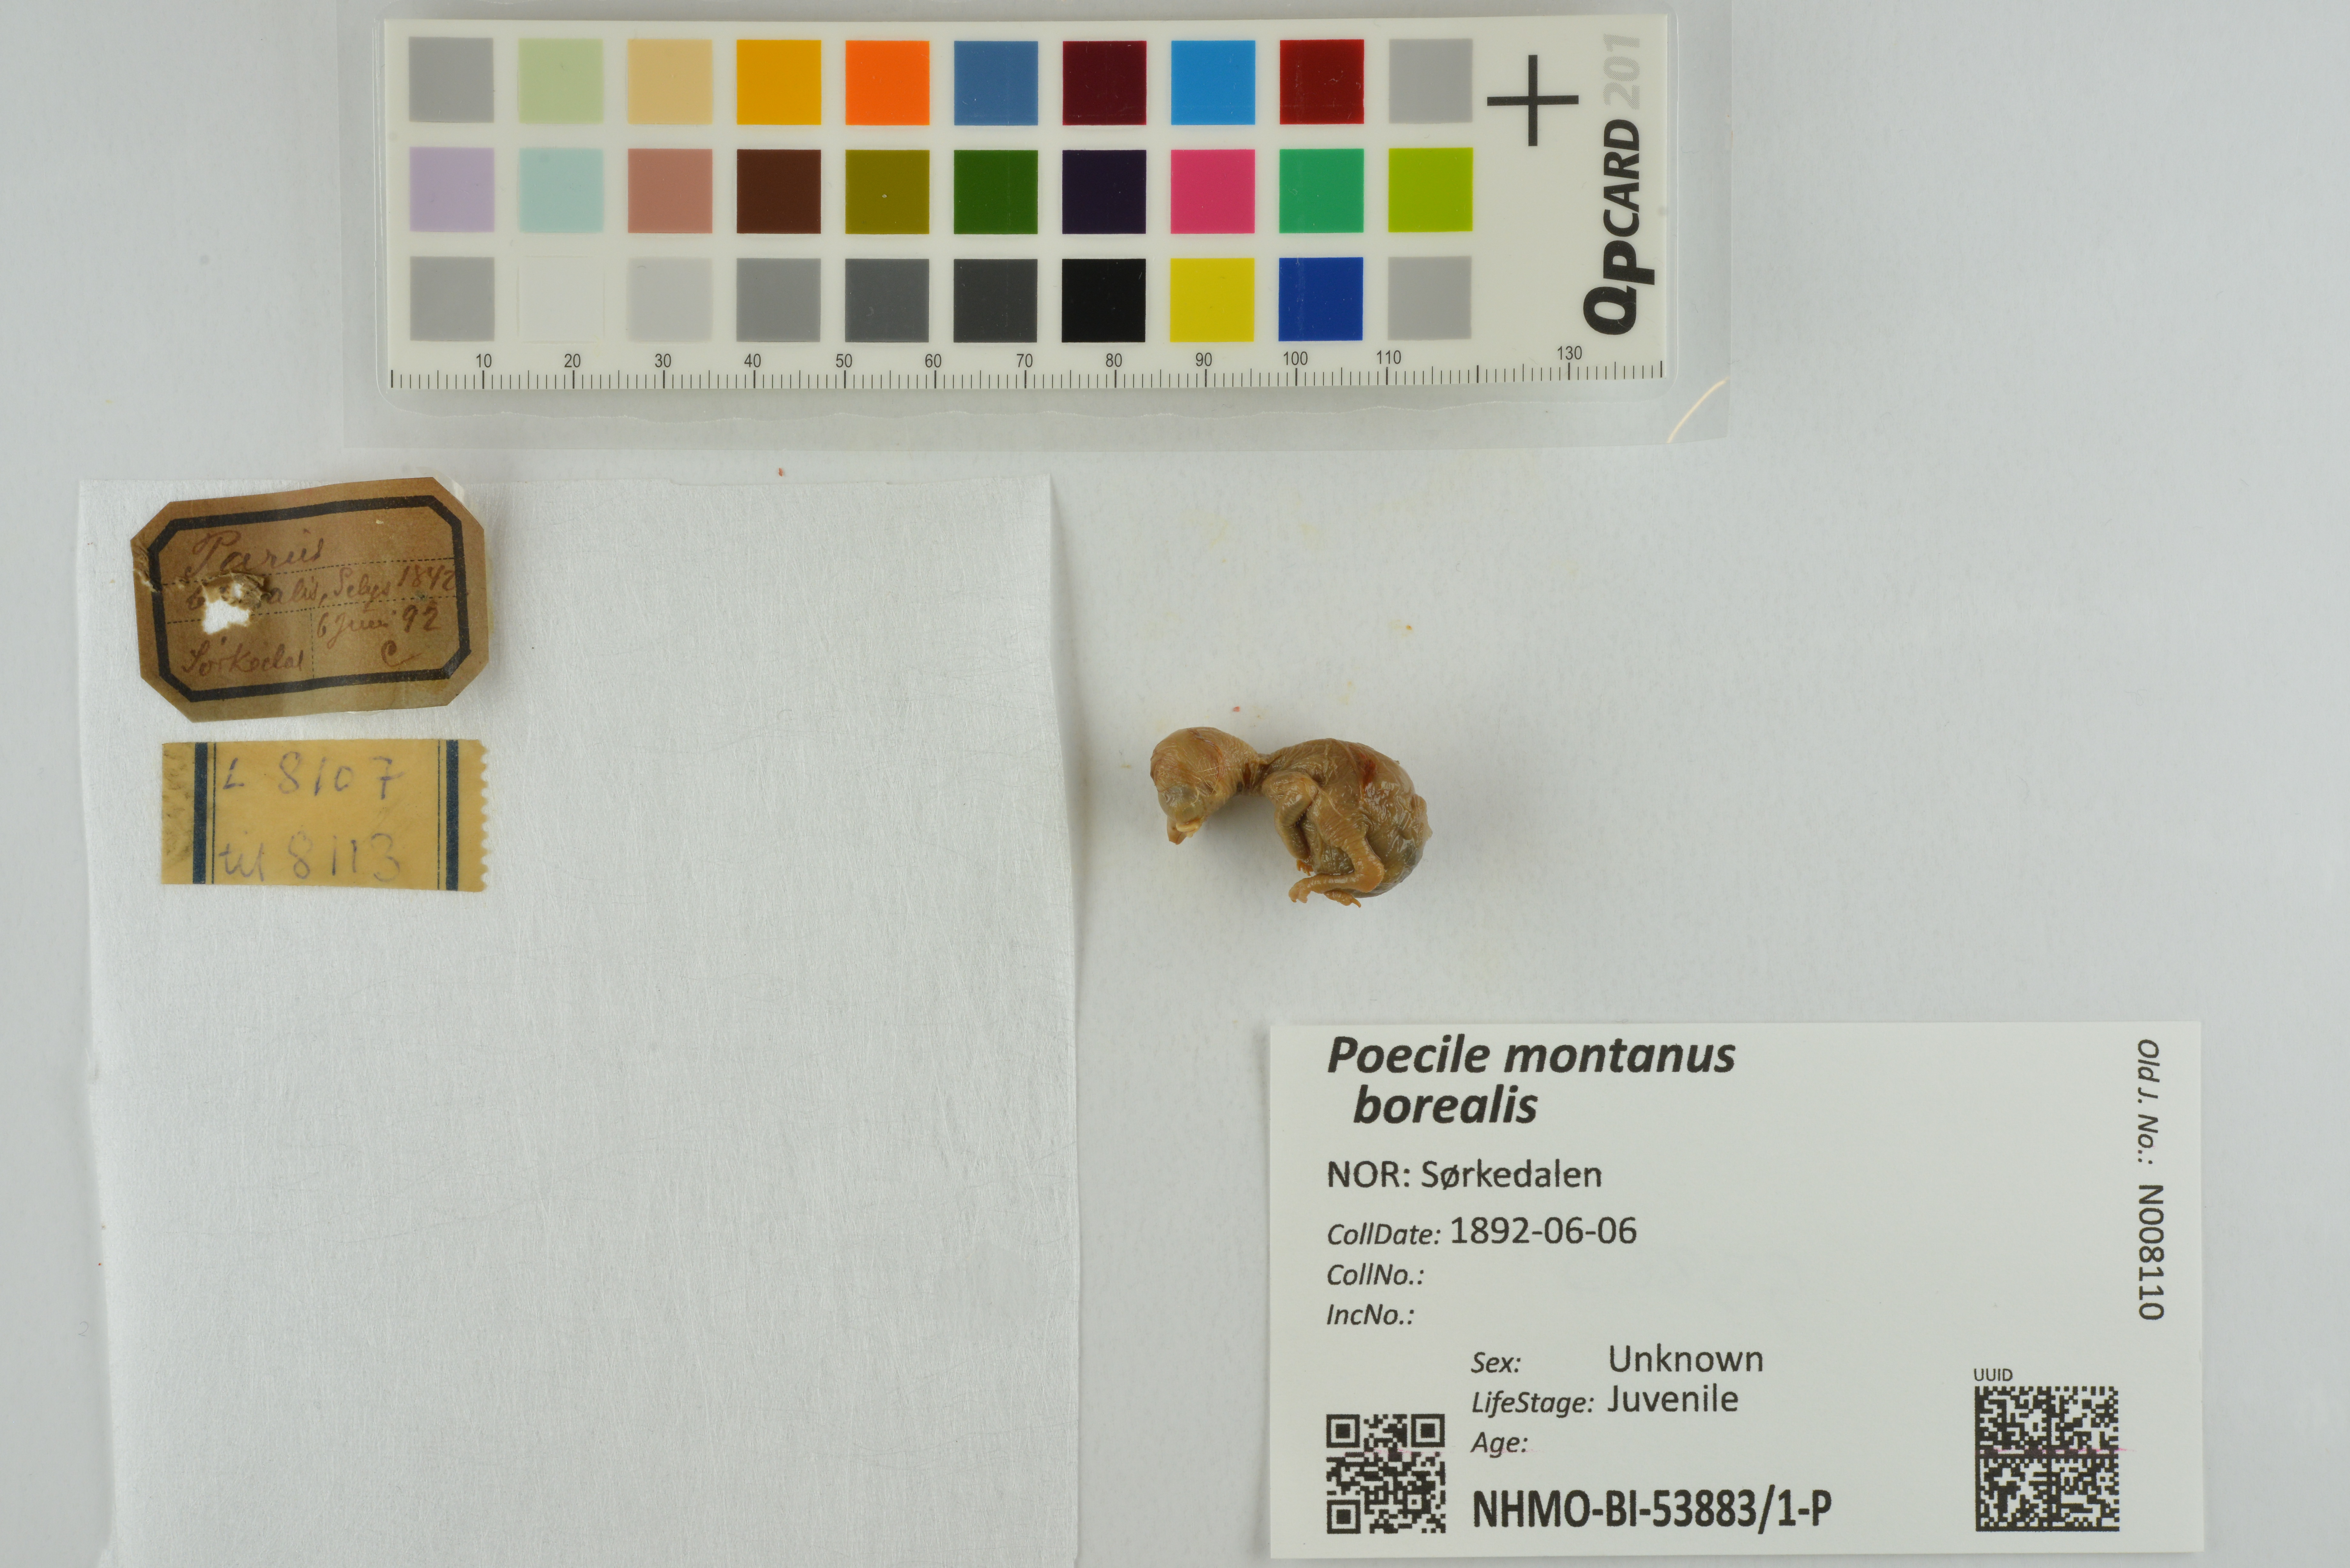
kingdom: Animalia
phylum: Chordata
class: Aves
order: Passeriformes
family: Paridae
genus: Poecile
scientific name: Poecile montanus
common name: Willow tit
